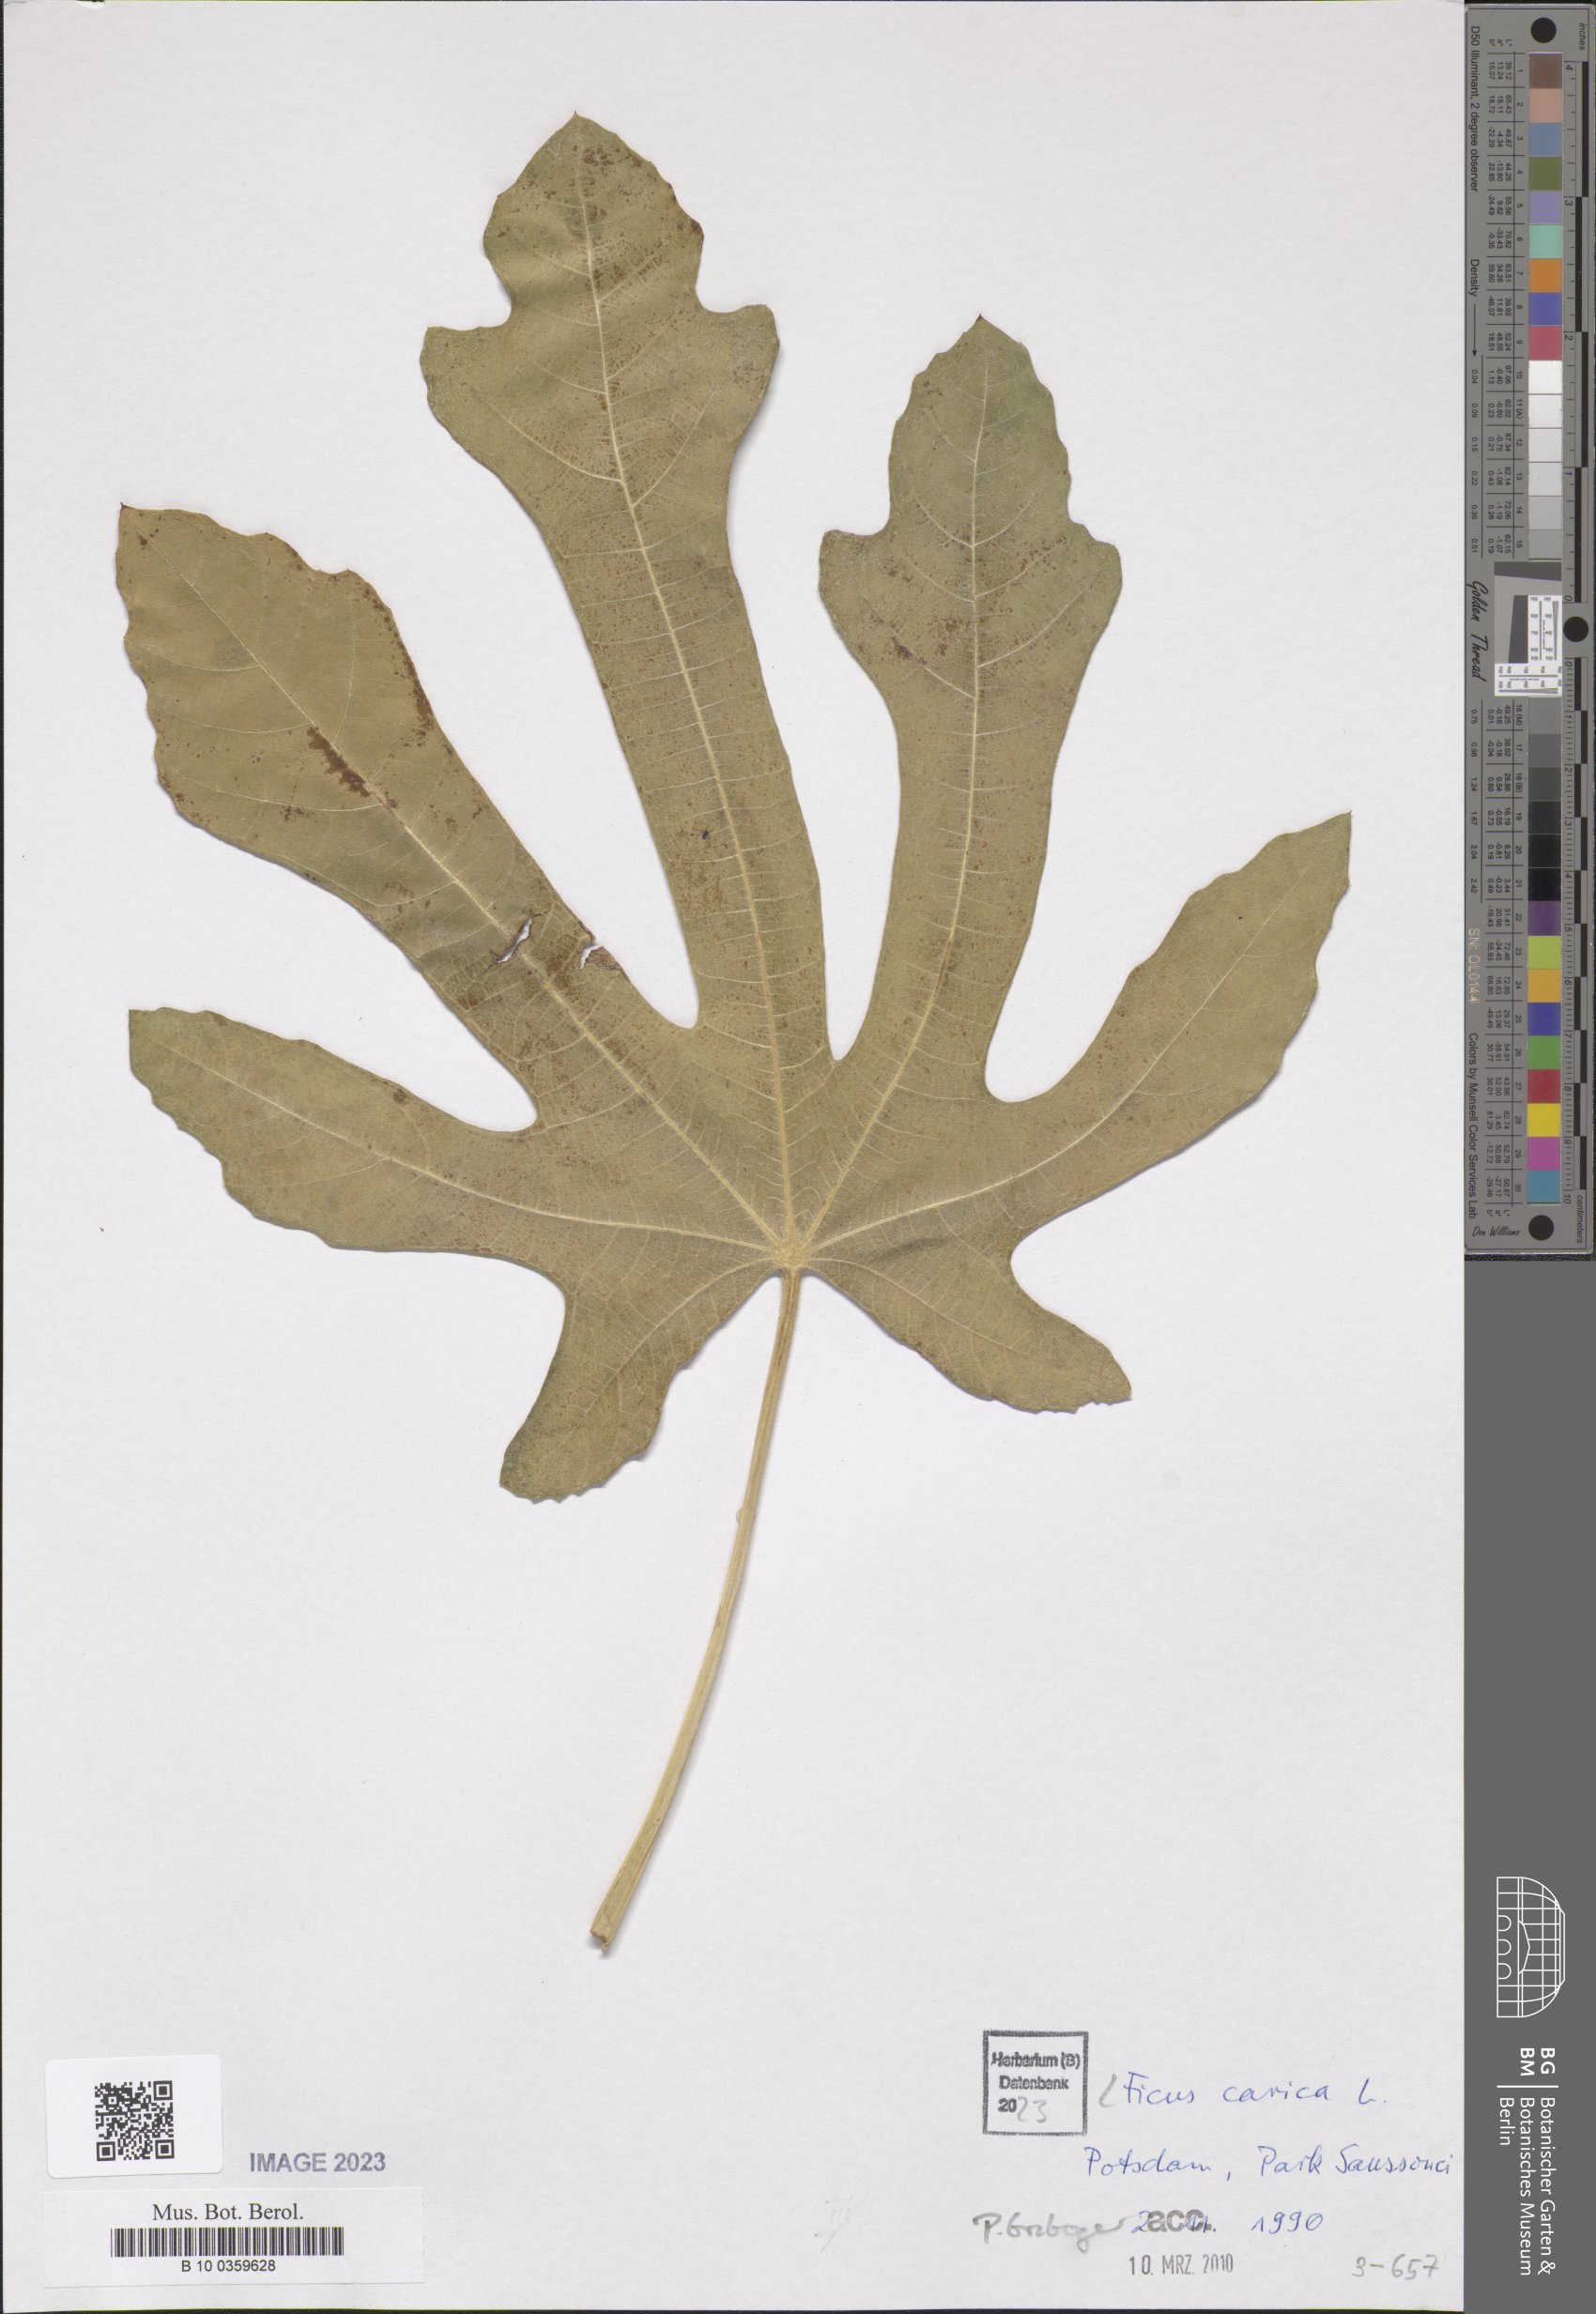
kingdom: Plantae
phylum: Tracheophyta
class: Magnoliopsida
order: Rosales
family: Moraceae
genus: Ficus
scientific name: Ficus carica
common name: Fig
